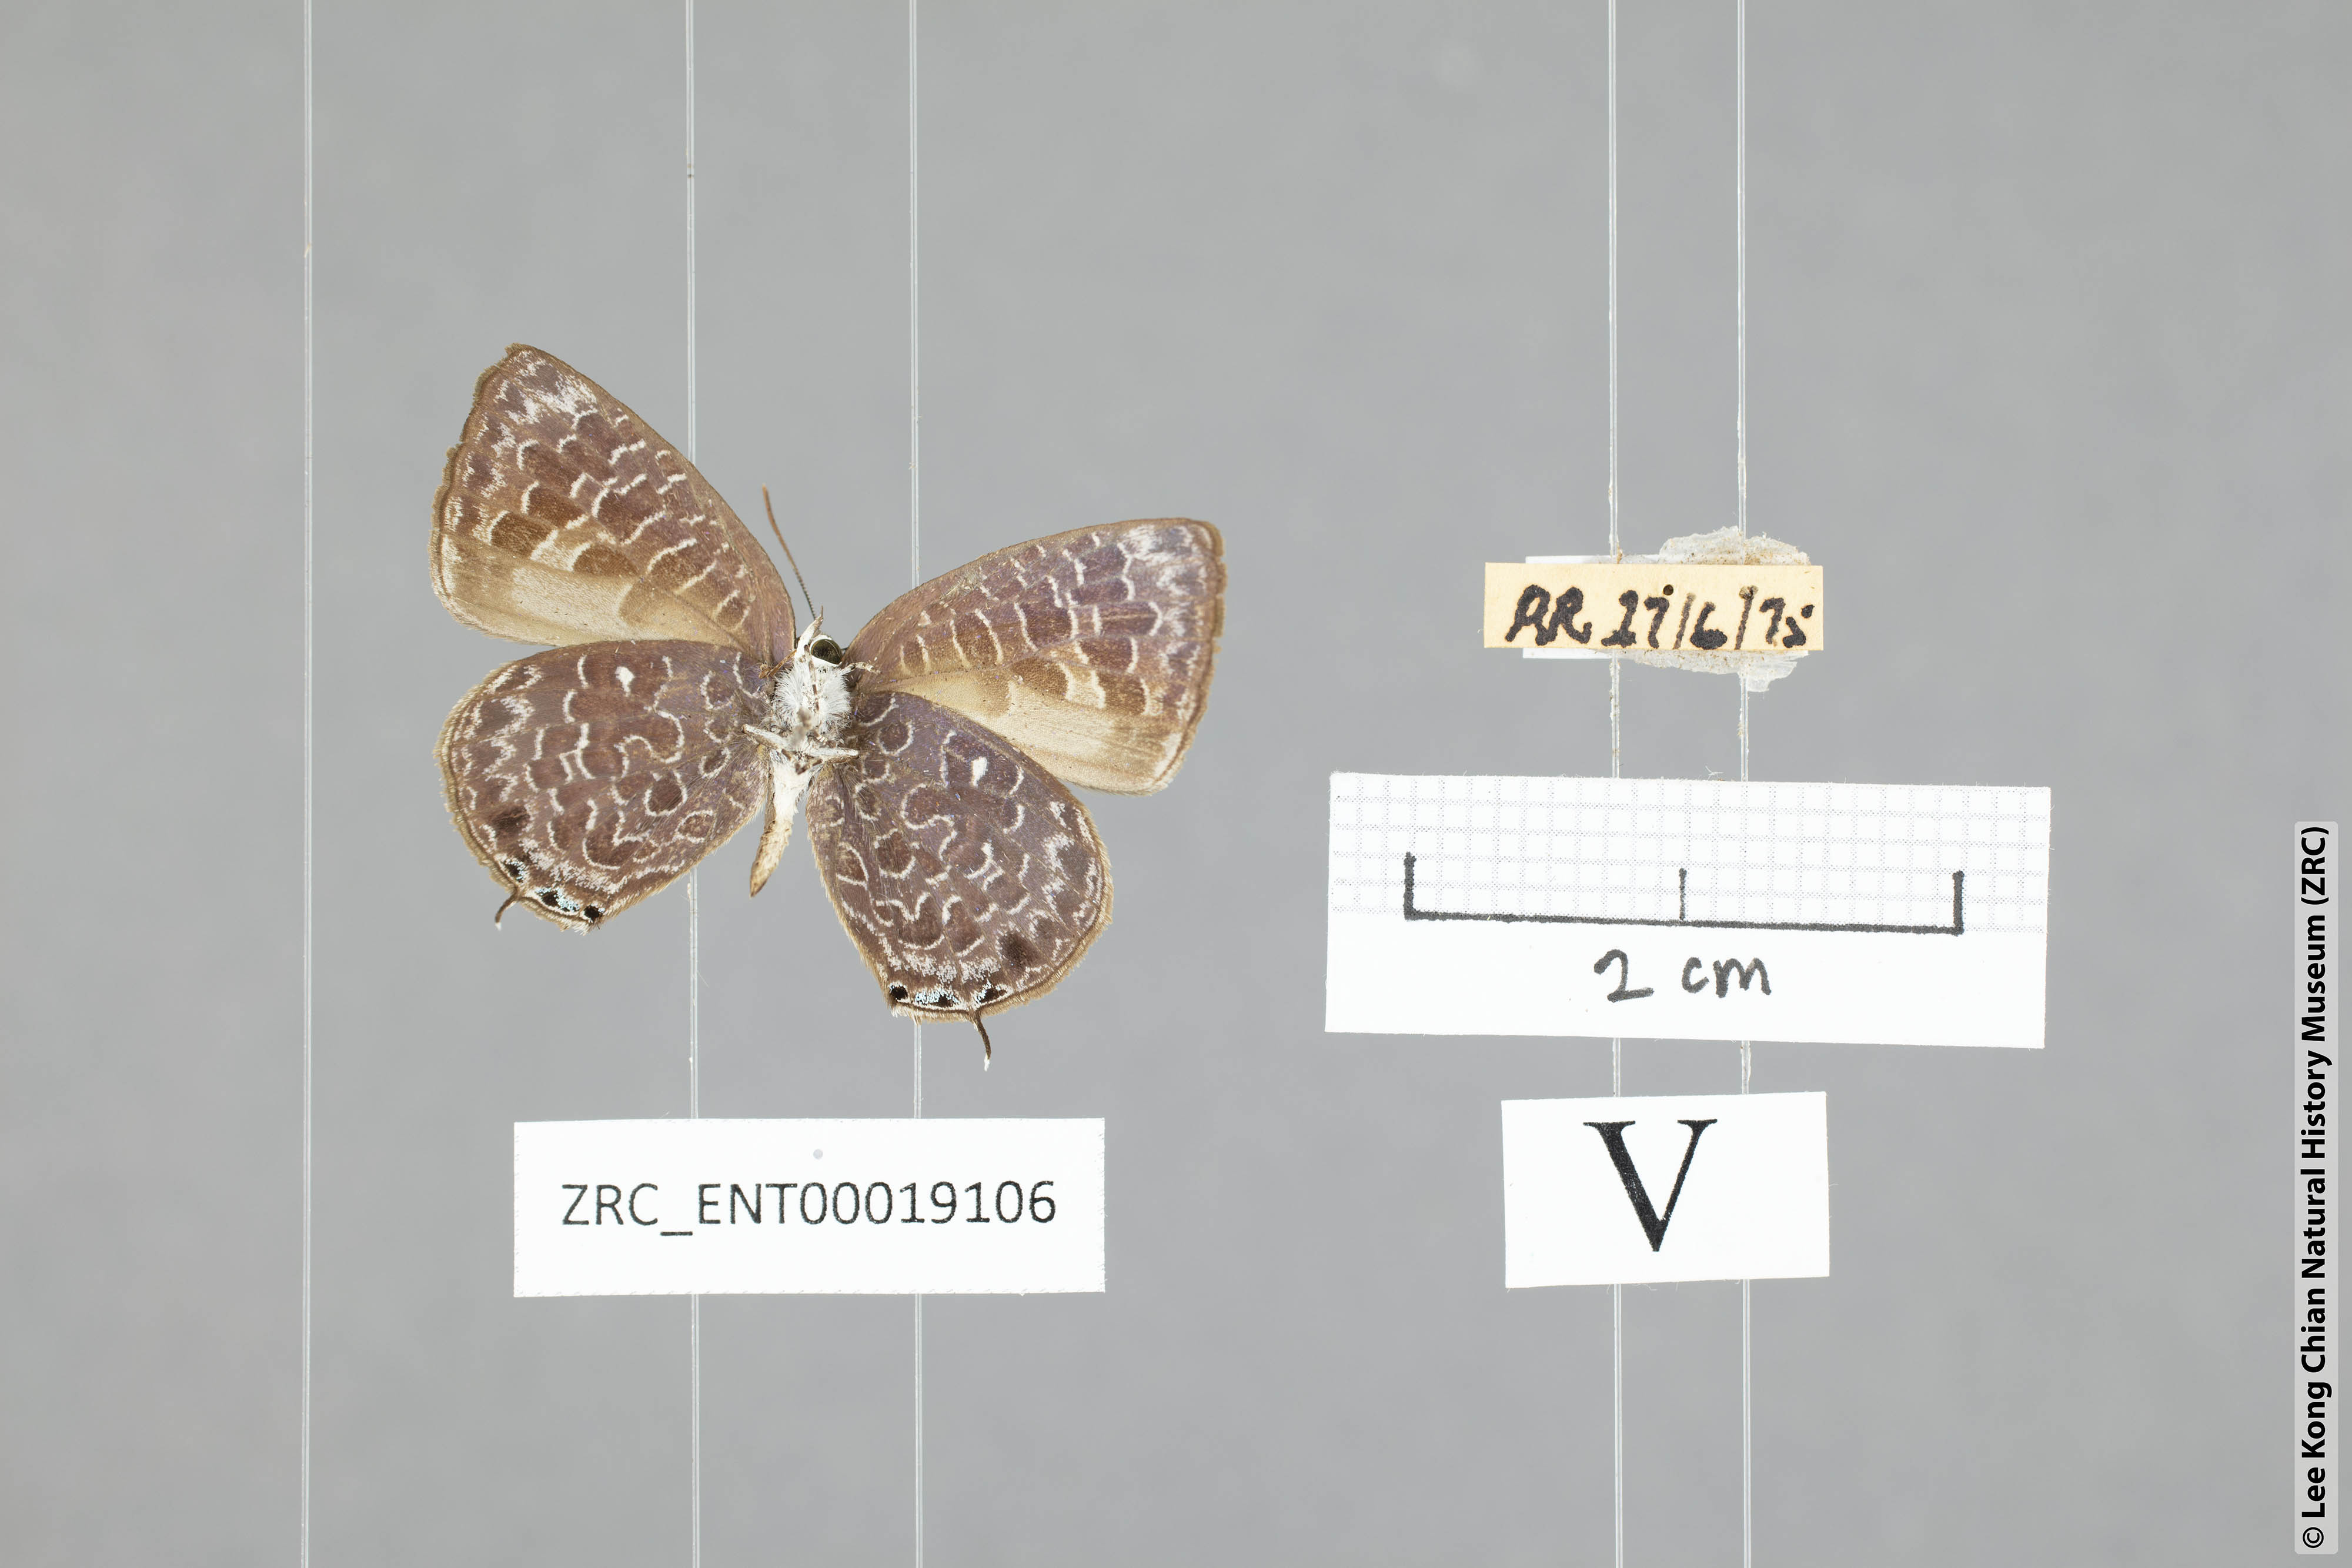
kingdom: Animalia
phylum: Arthropoda
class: Insecta
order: Lepidoptera
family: Lycaenidae
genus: Arhopala
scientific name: Arhopala ammon
